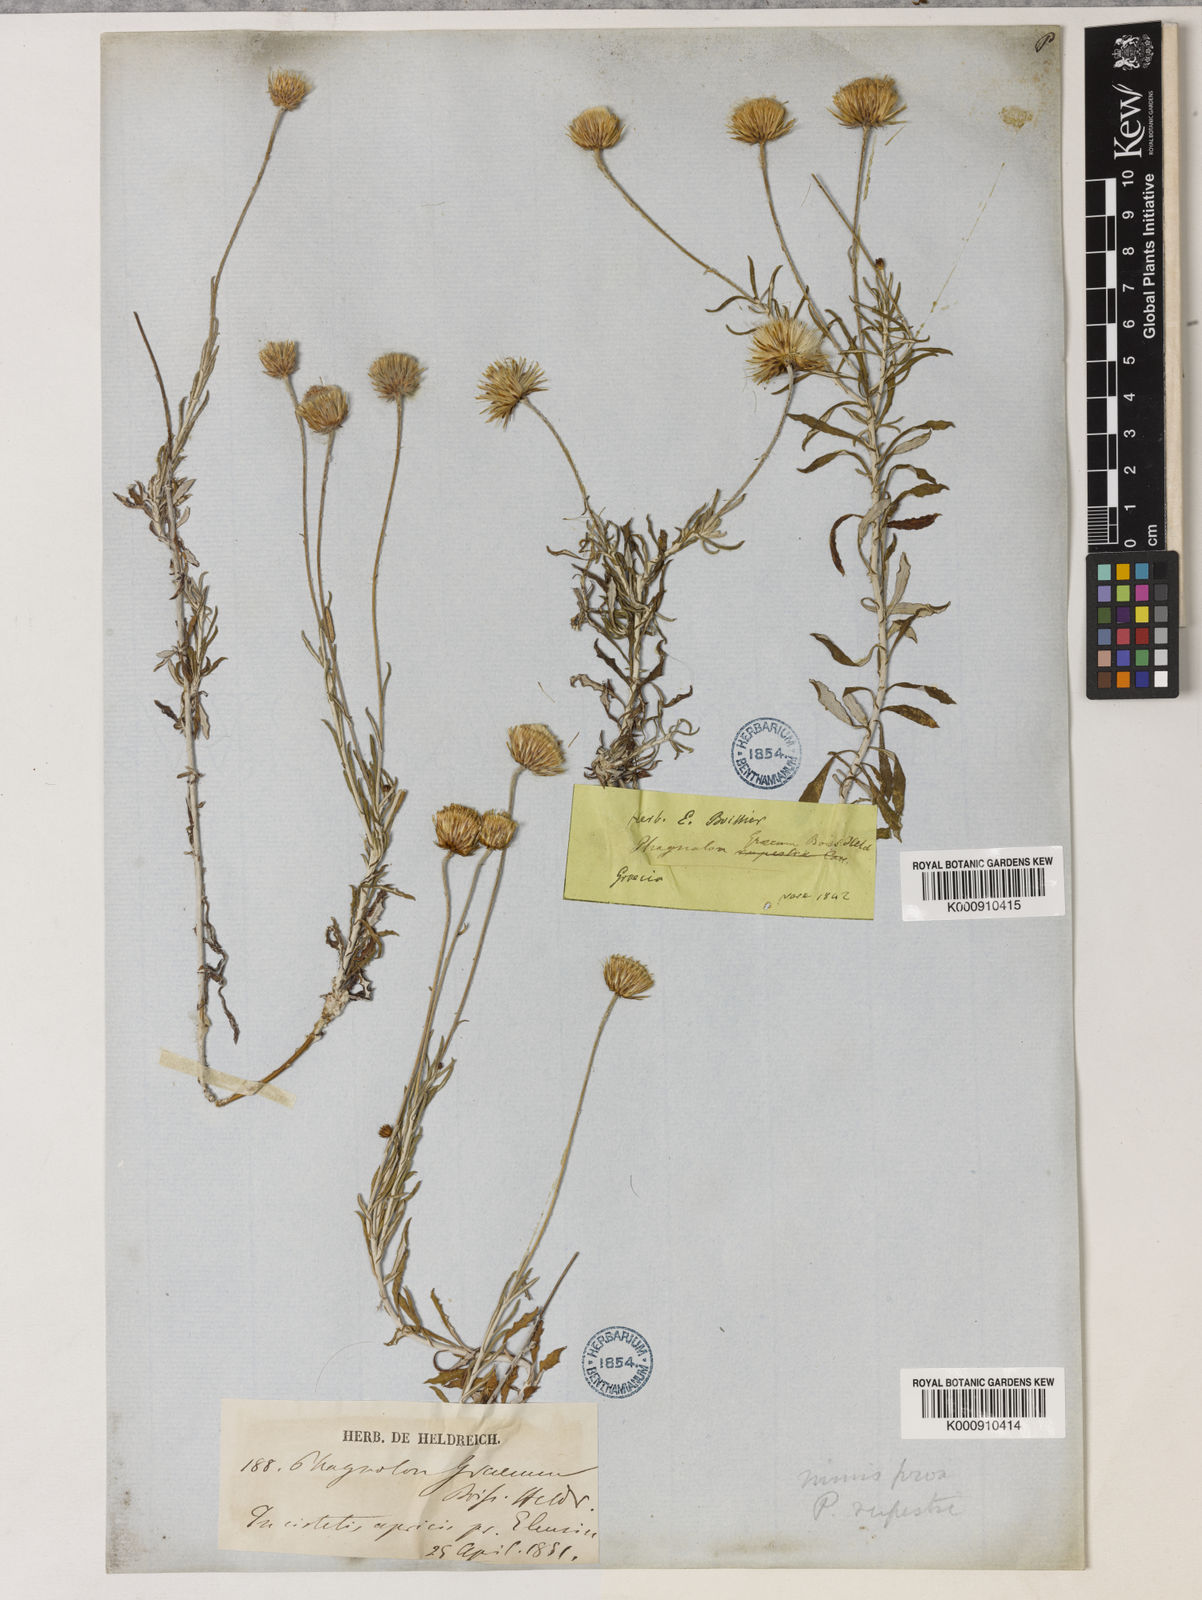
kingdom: Plantae
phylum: Tracheophyta
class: Magnoliopsida
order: Asterales
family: Asteraceae
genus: Phagnalon
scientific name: Phagnalon graecum
